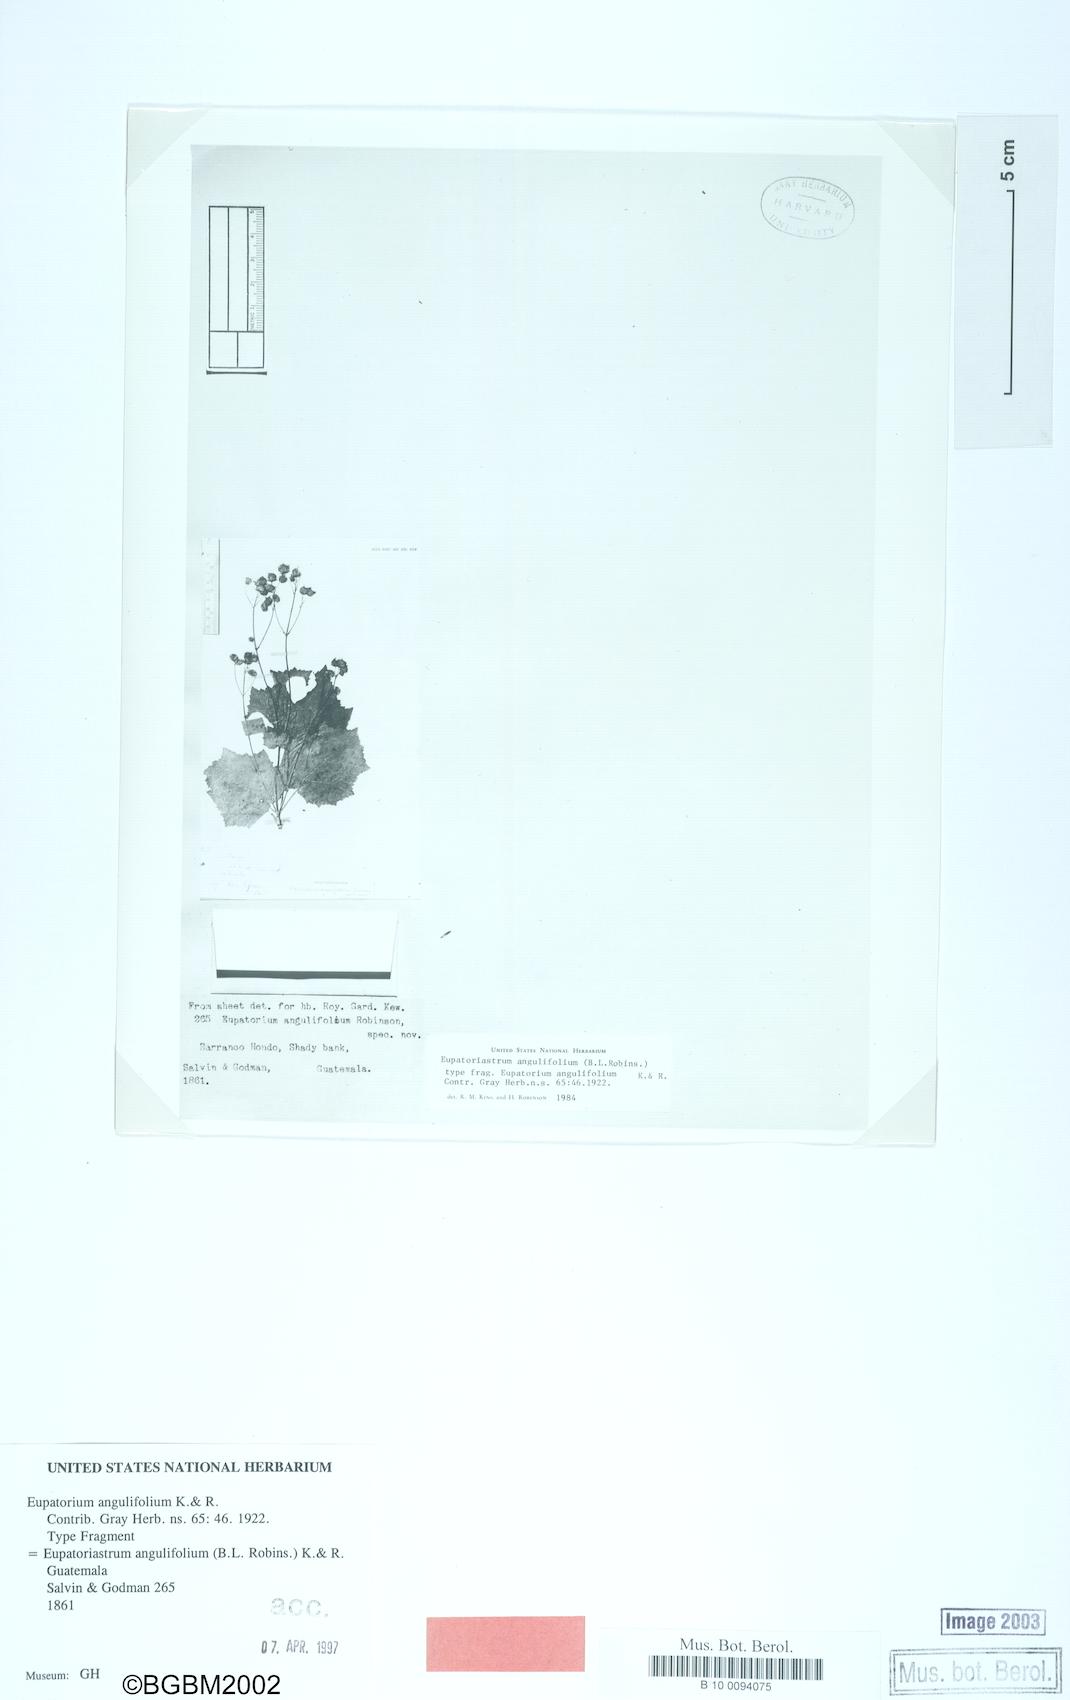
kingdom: Plantae
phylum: Tracheophyta
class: Magnoliopsida
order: Asterales
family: Asteraceae
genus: Eupatoriastrum
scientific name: Eupatoriastrum angulifolium
